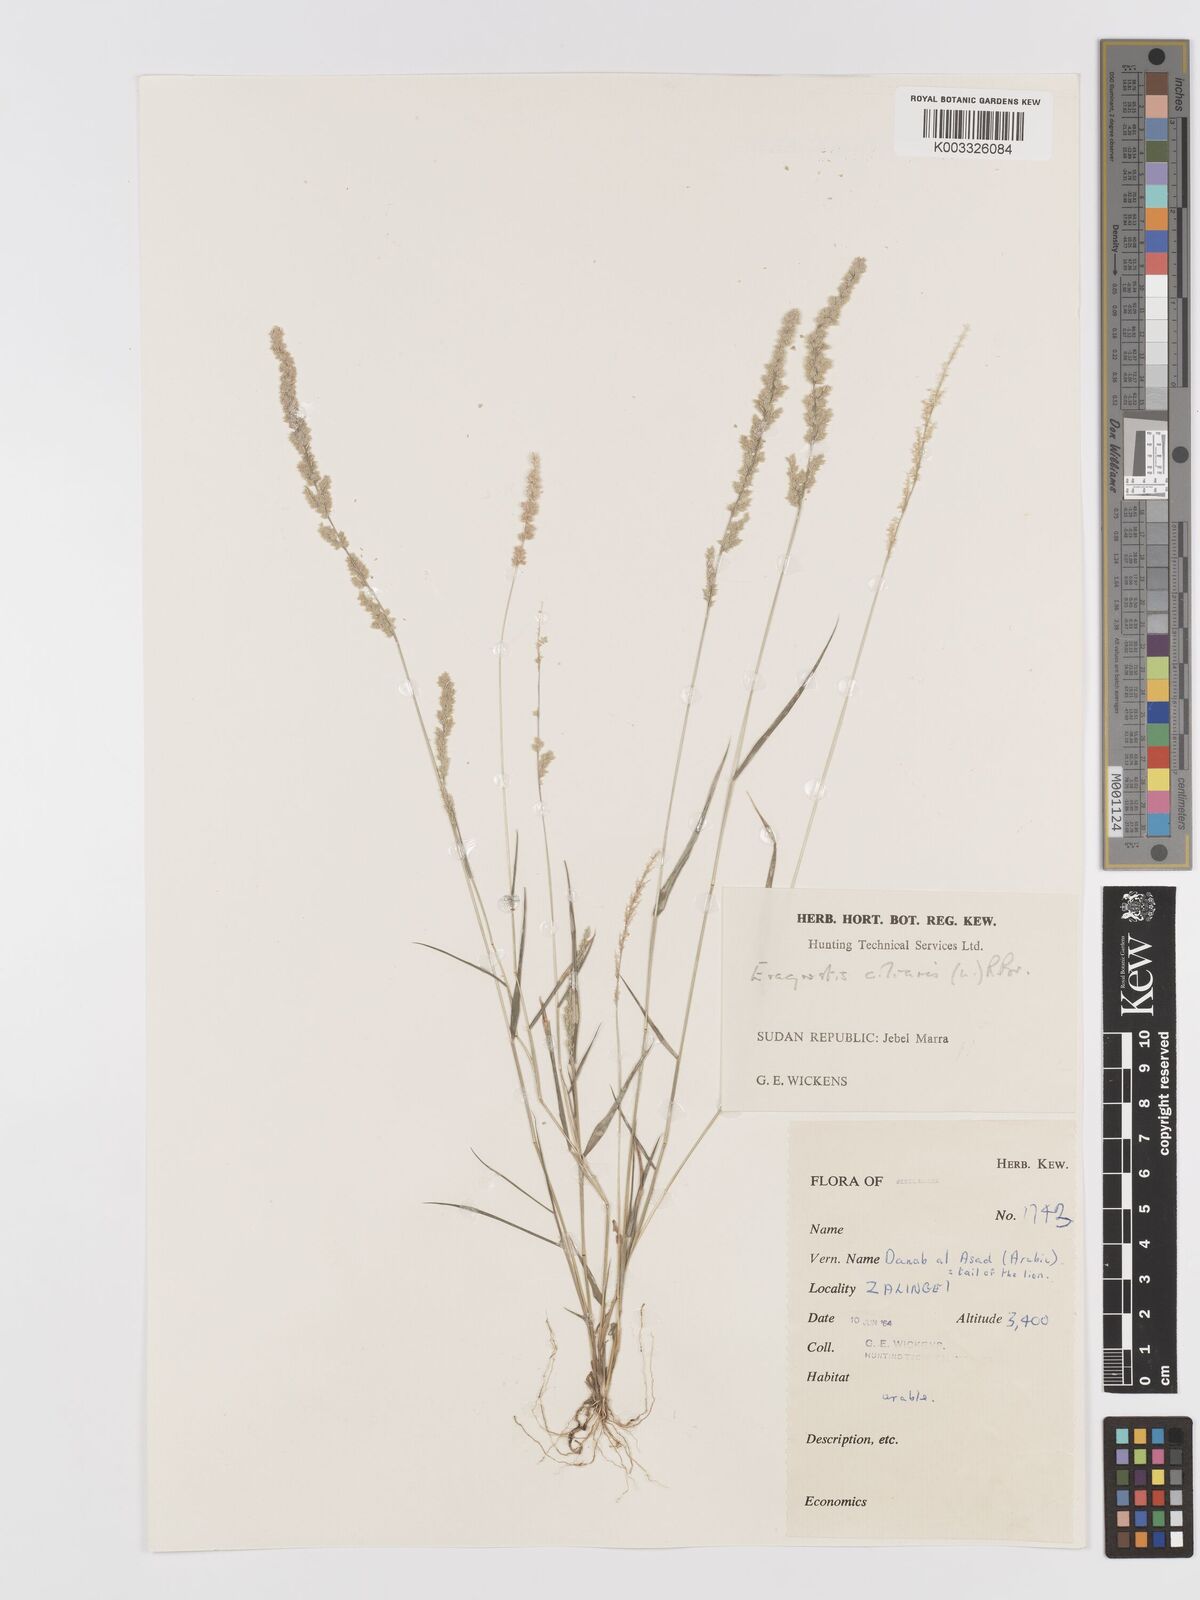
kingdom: Plantae
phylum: Tracheophyta
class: Liliopsida
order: Poales
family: Poaceae
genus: Eragrostis
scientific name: Eragrostis ciliaris
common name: Gophertail lovegrass
